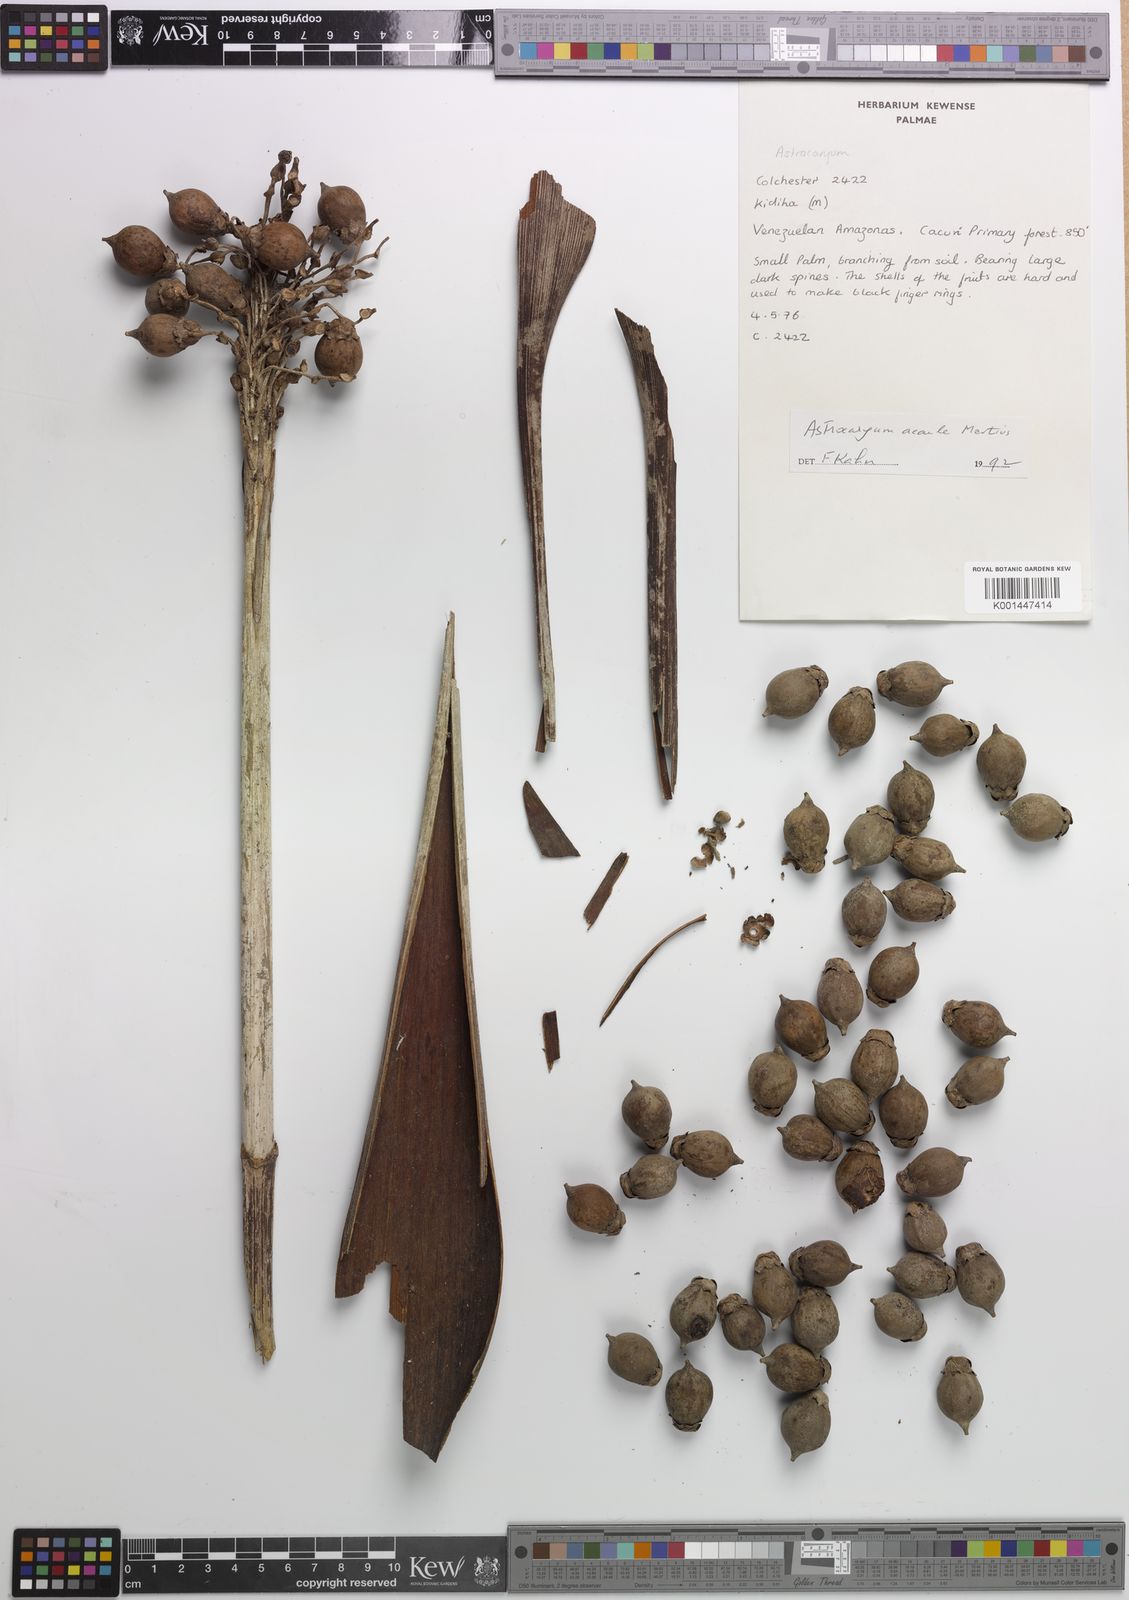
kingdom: Plantae
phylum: Tracheophyta
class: Liliopsida
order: Arecales
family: Arecaceae
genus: Astrocaryum
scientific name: Astrocaryum acaule
